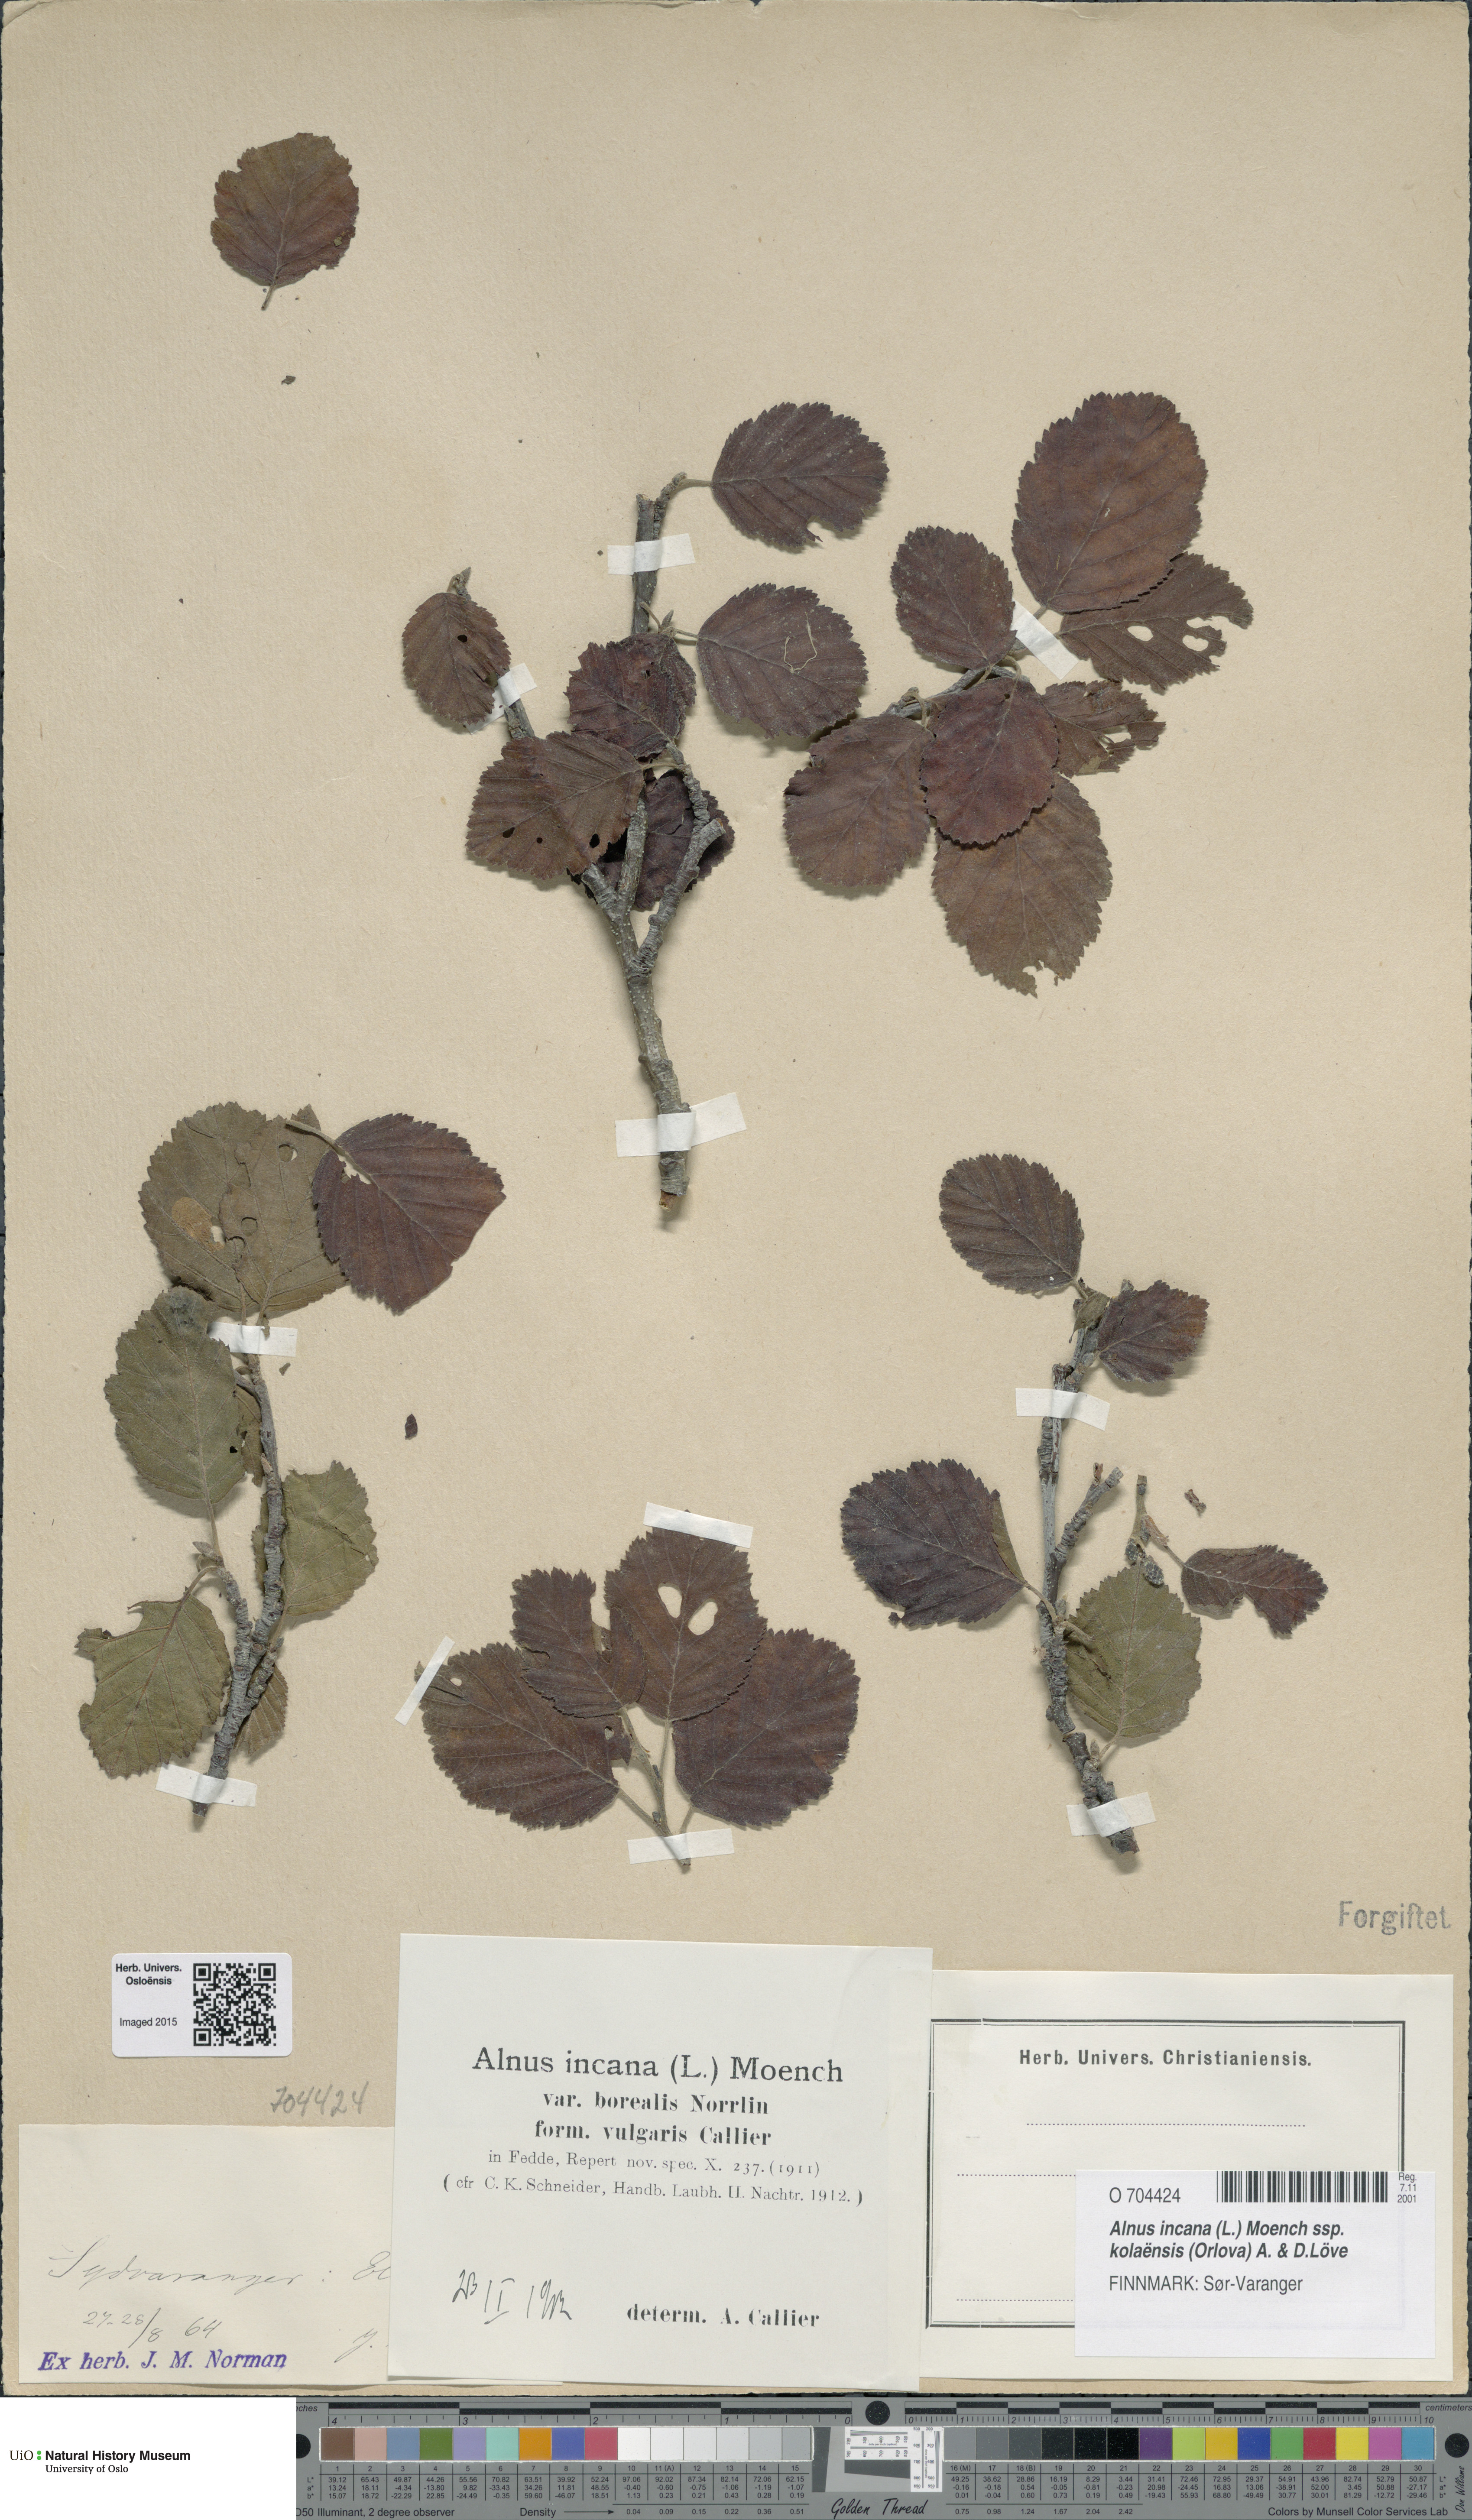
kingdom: Plantae
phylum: Tracheophyta
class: Magnoliopsida
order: Fagales
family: Betulaceae
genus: Alnus
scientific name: Alnus incana
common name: Grey alder
